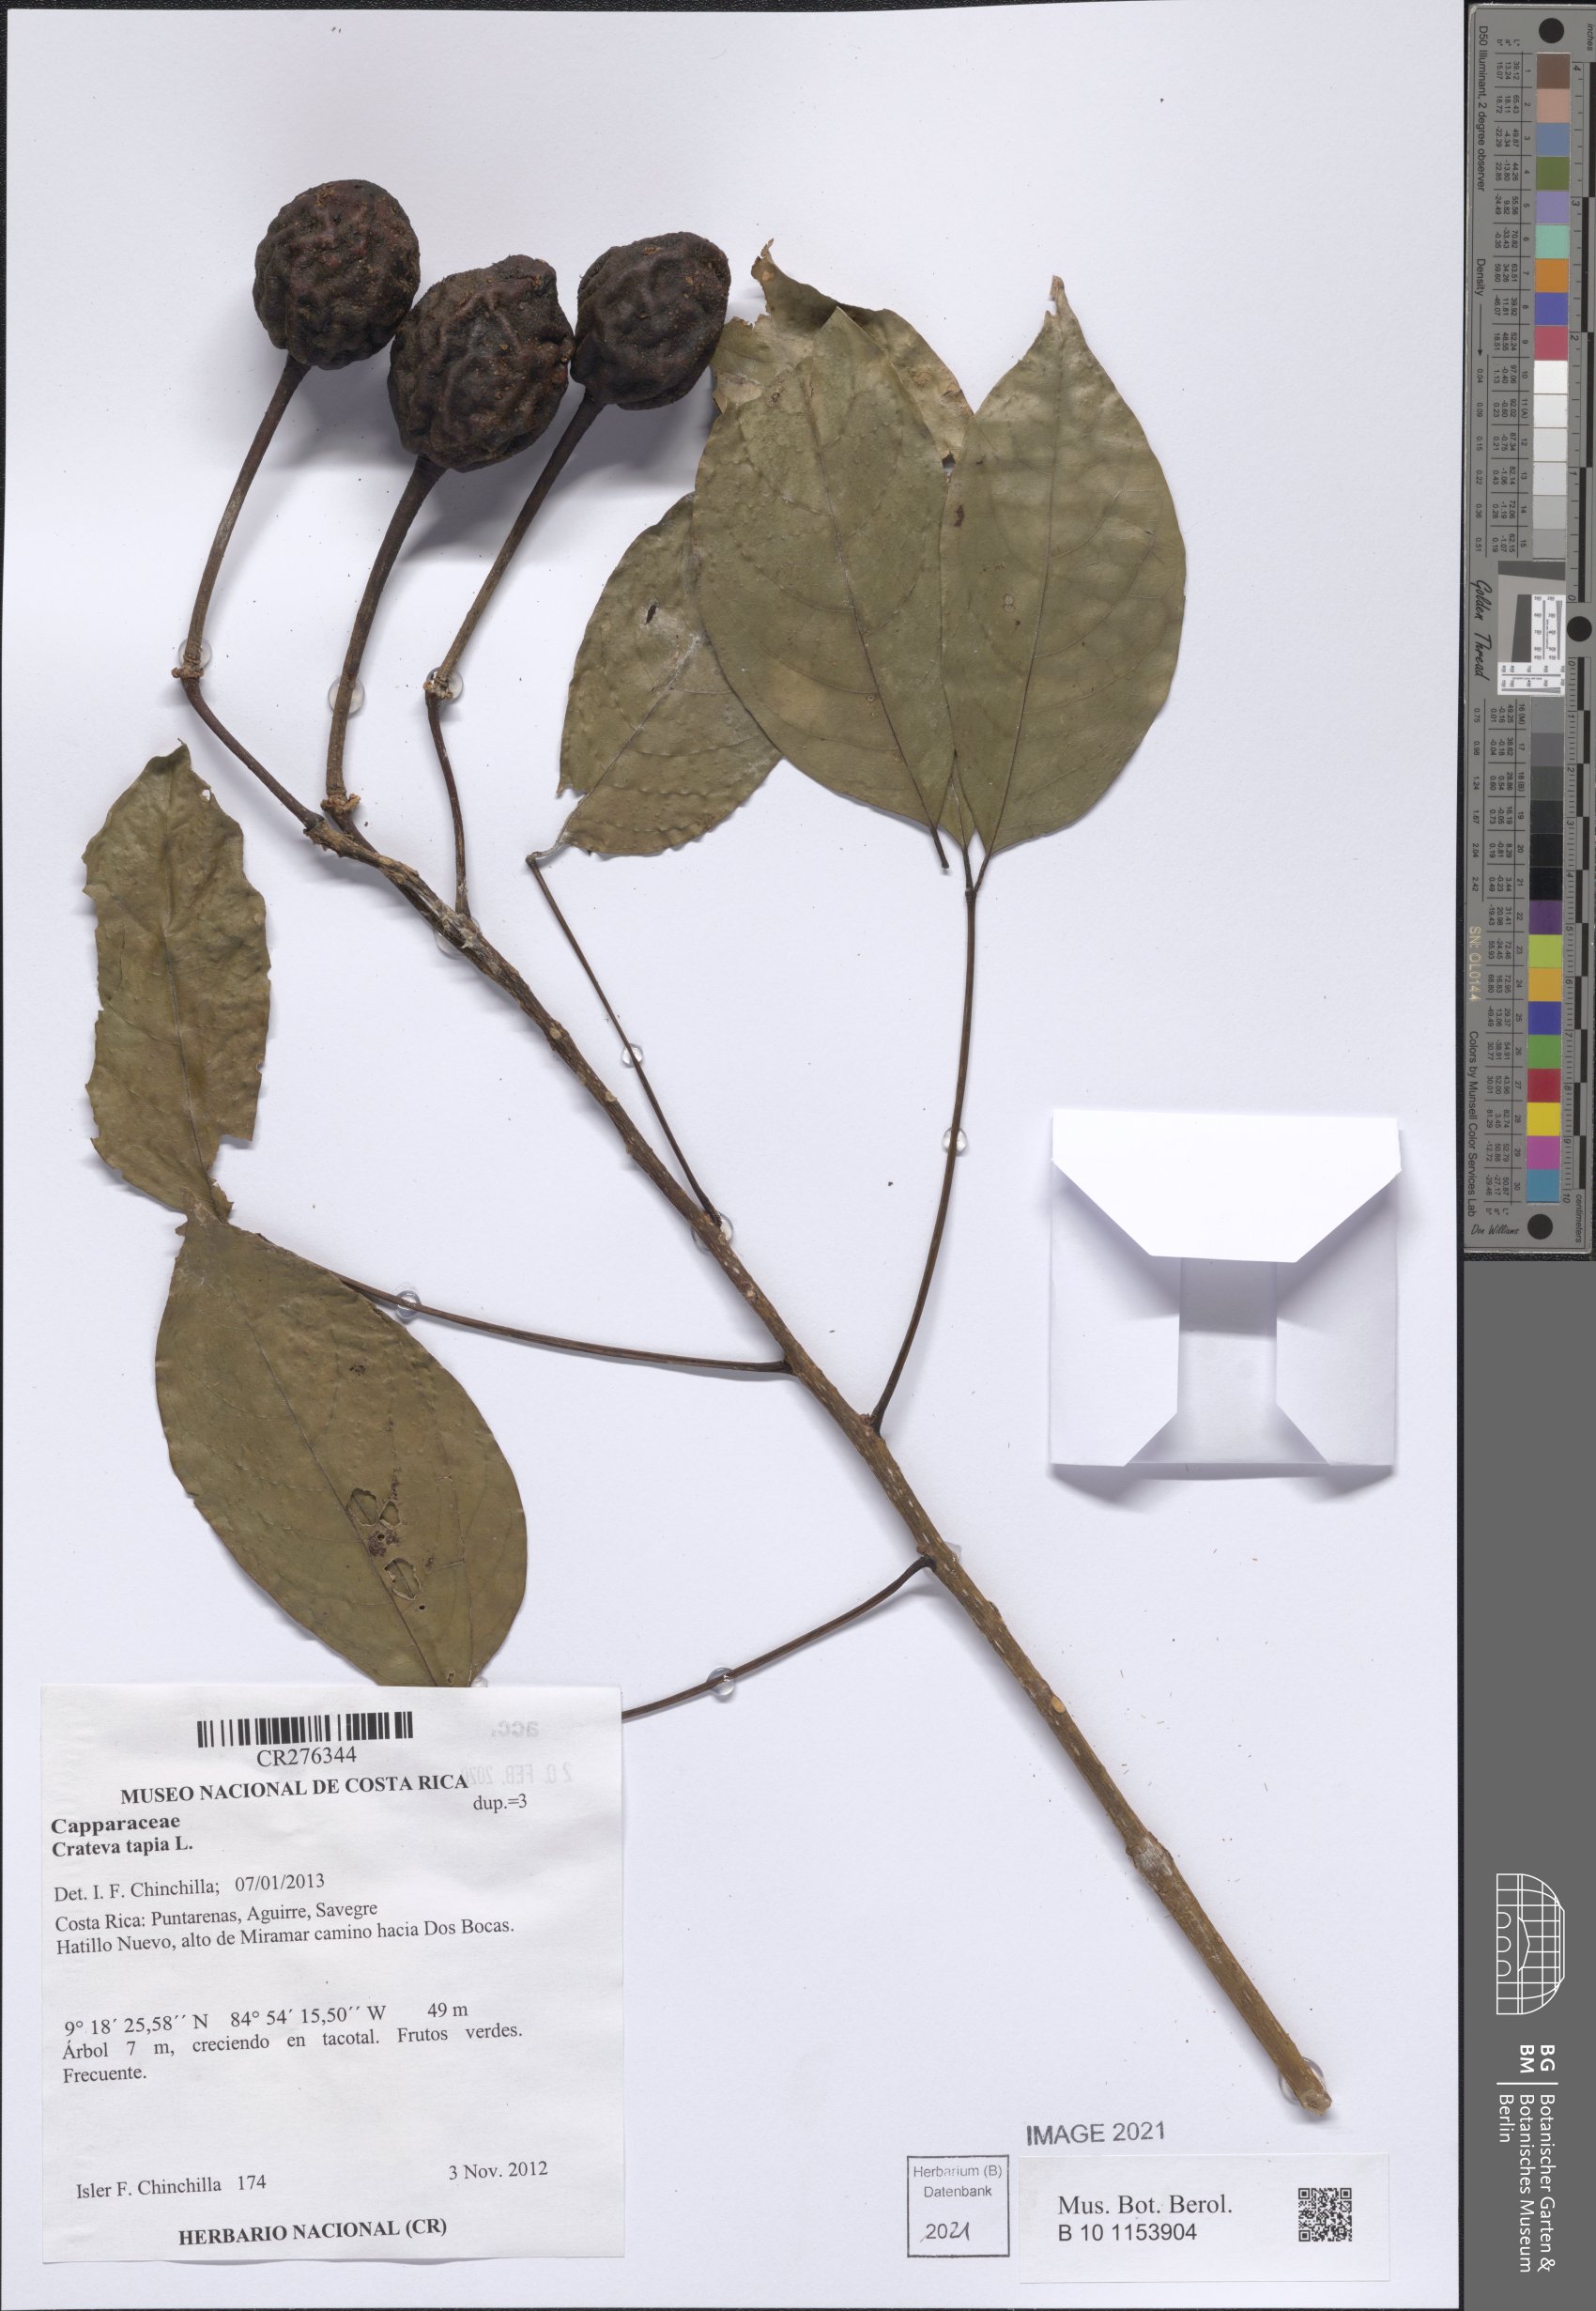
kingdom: Plantae
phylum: Tracheophyta
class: Magnoliopsida
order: Brassicales
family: Capparaceae
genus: Crateva
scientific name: Crateva tapia
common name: Garlic-pear
